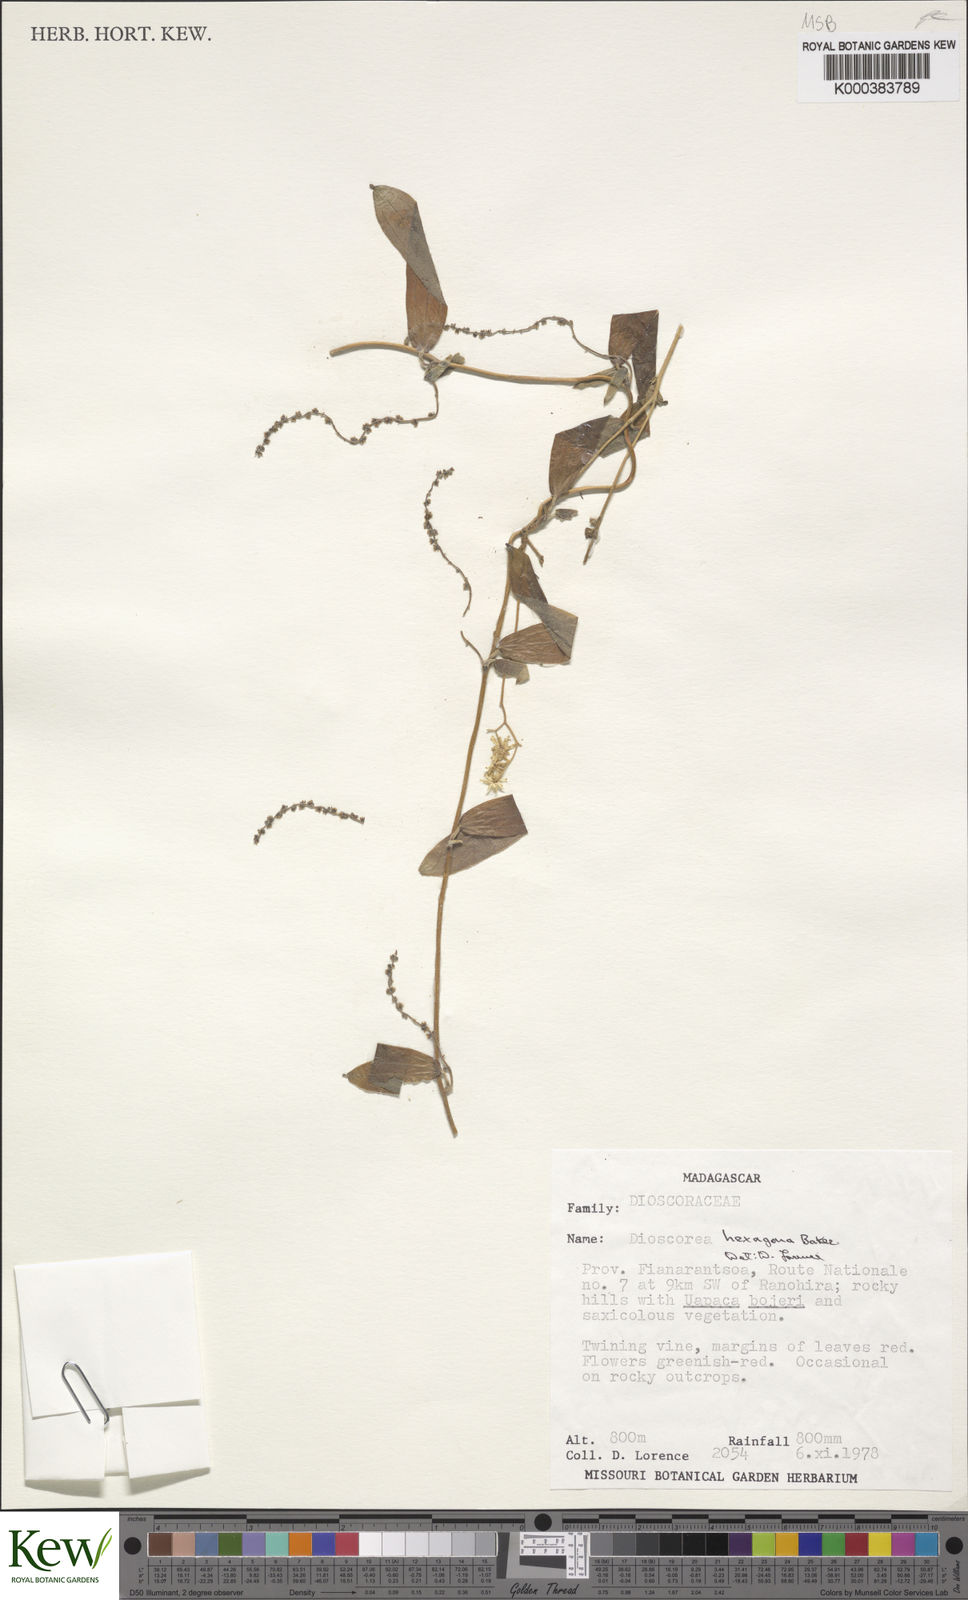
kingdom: Plantae
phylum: Tracheophyta
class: Liliopsida
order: Dioscoreales
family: Dioscoreaceae
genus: Dioscorea
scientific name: Dioscorea
